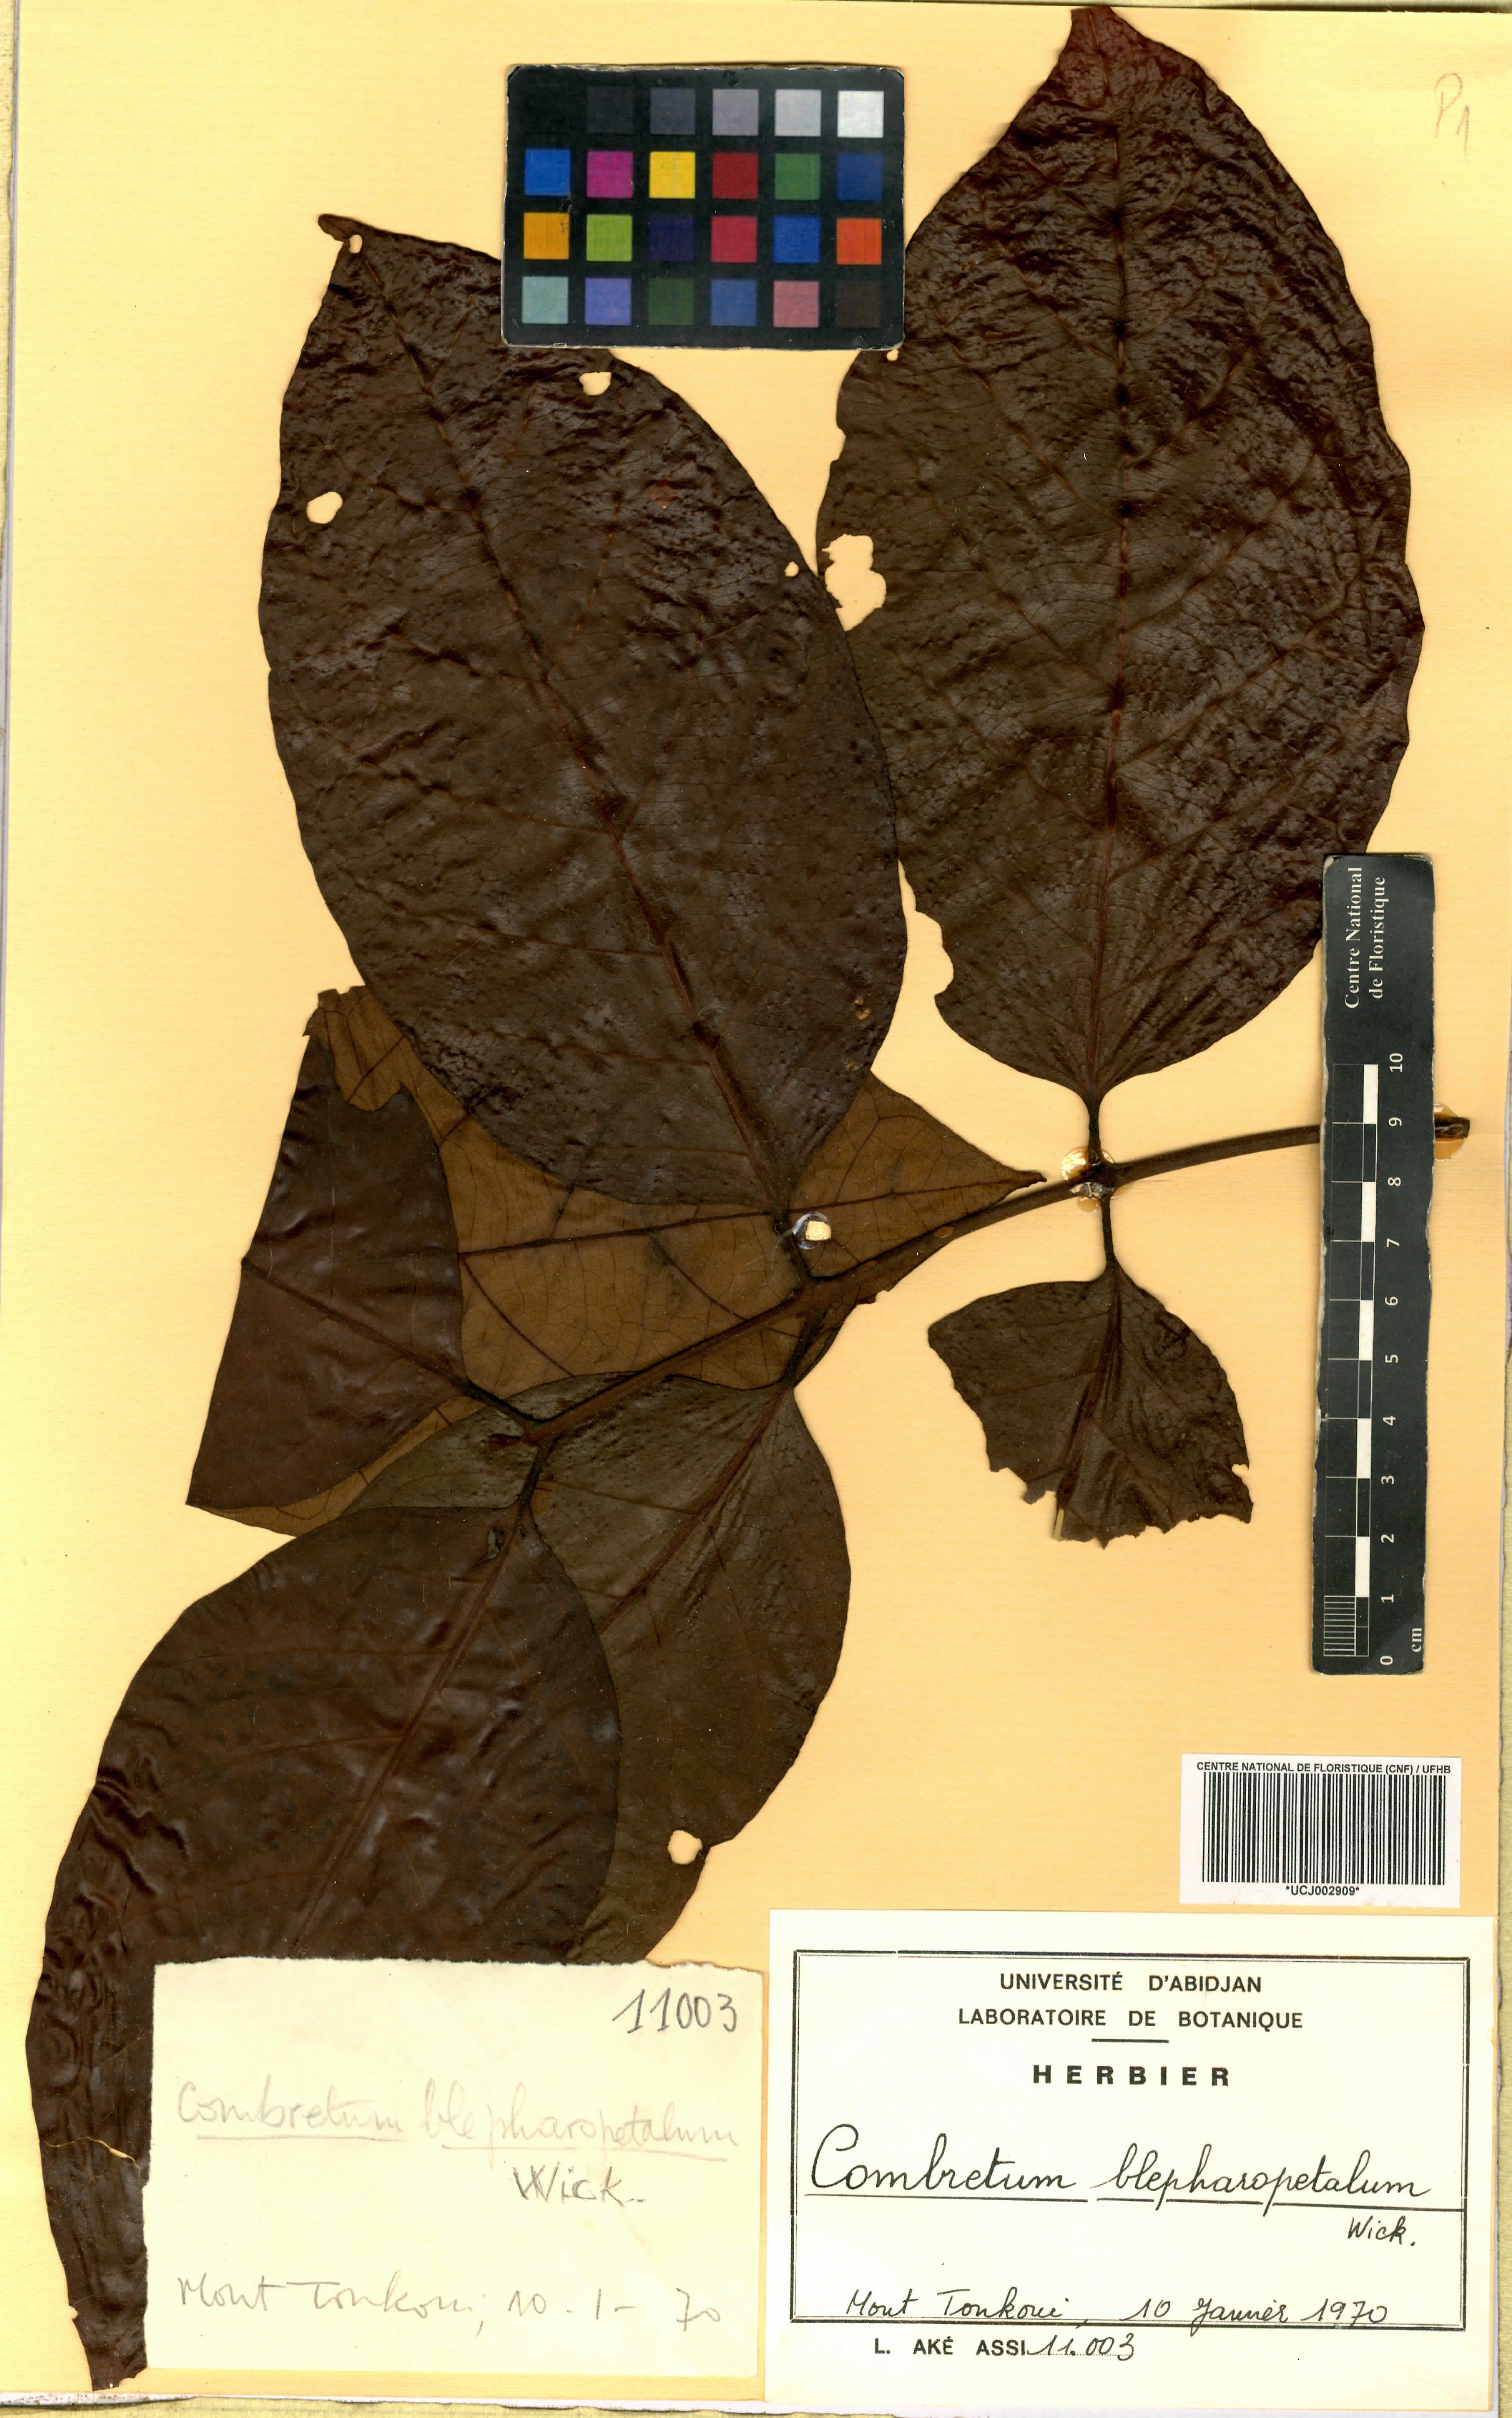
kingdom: Plantae
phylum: Tracheophyta
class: Magnoliopsida
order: Myrtales
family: Combretaceae
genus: Combretum
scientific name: Combretum blepharopetalum
